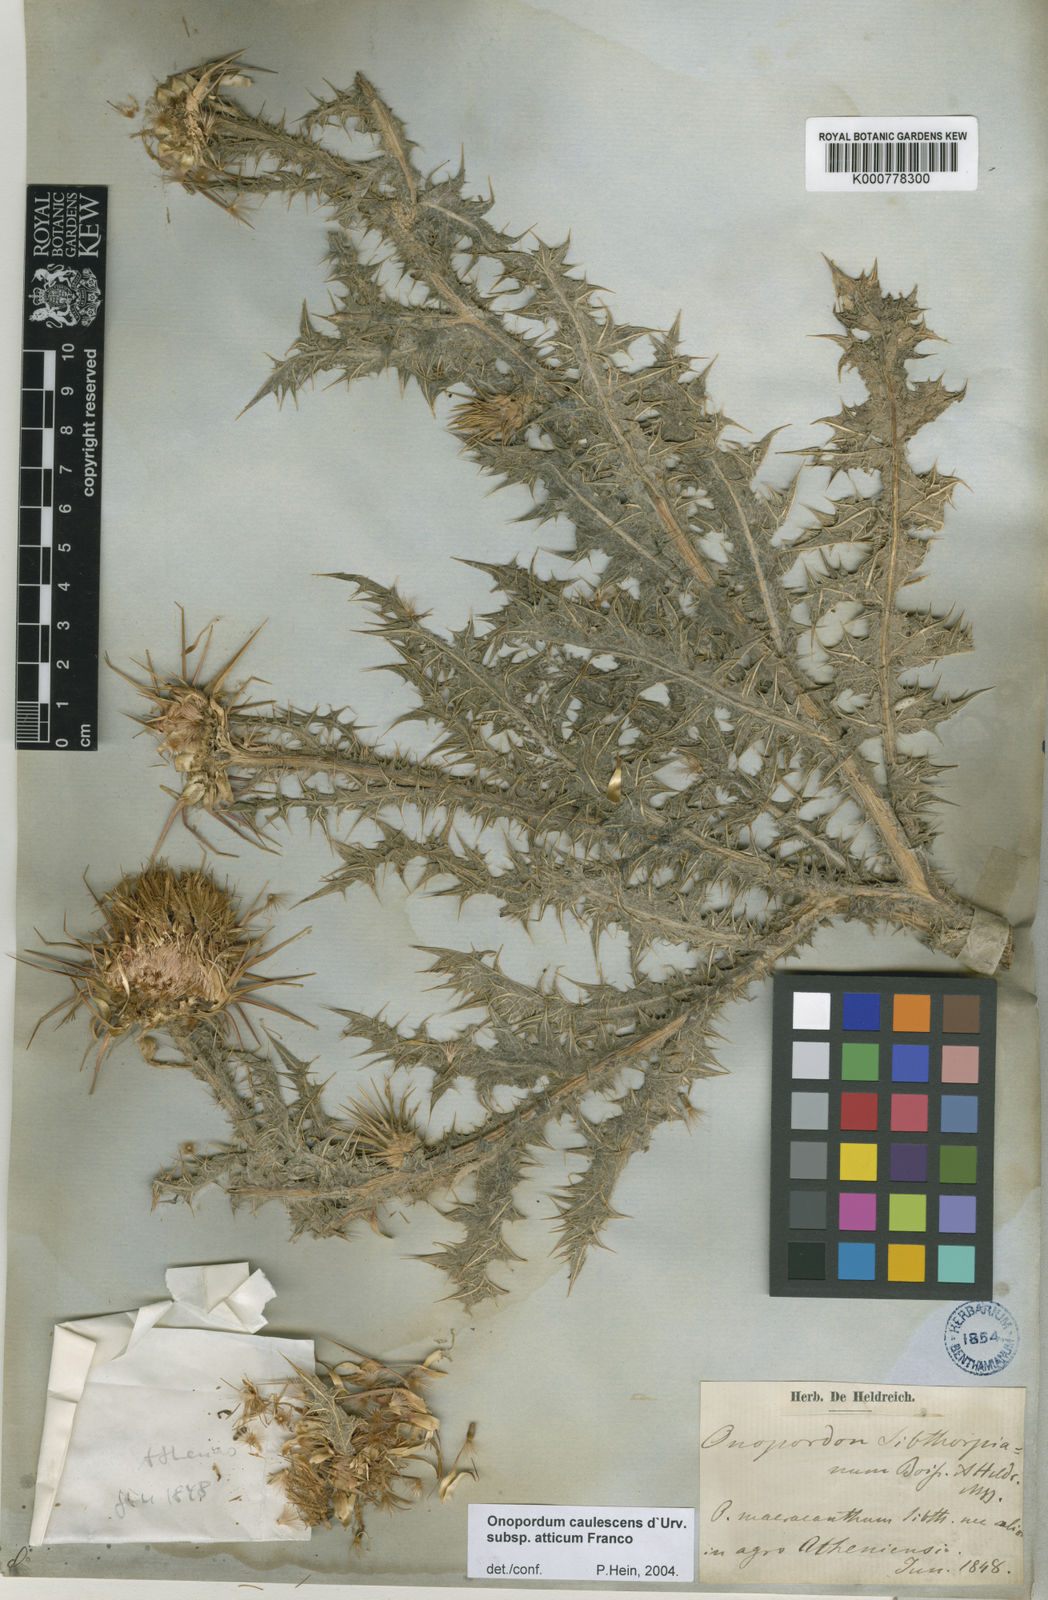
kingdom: Plantae
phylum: Tracheophyta
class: Magnoliopsida
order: Asterales
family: Asteraceae
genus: Onopordum
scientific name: Onopordum caulescens
